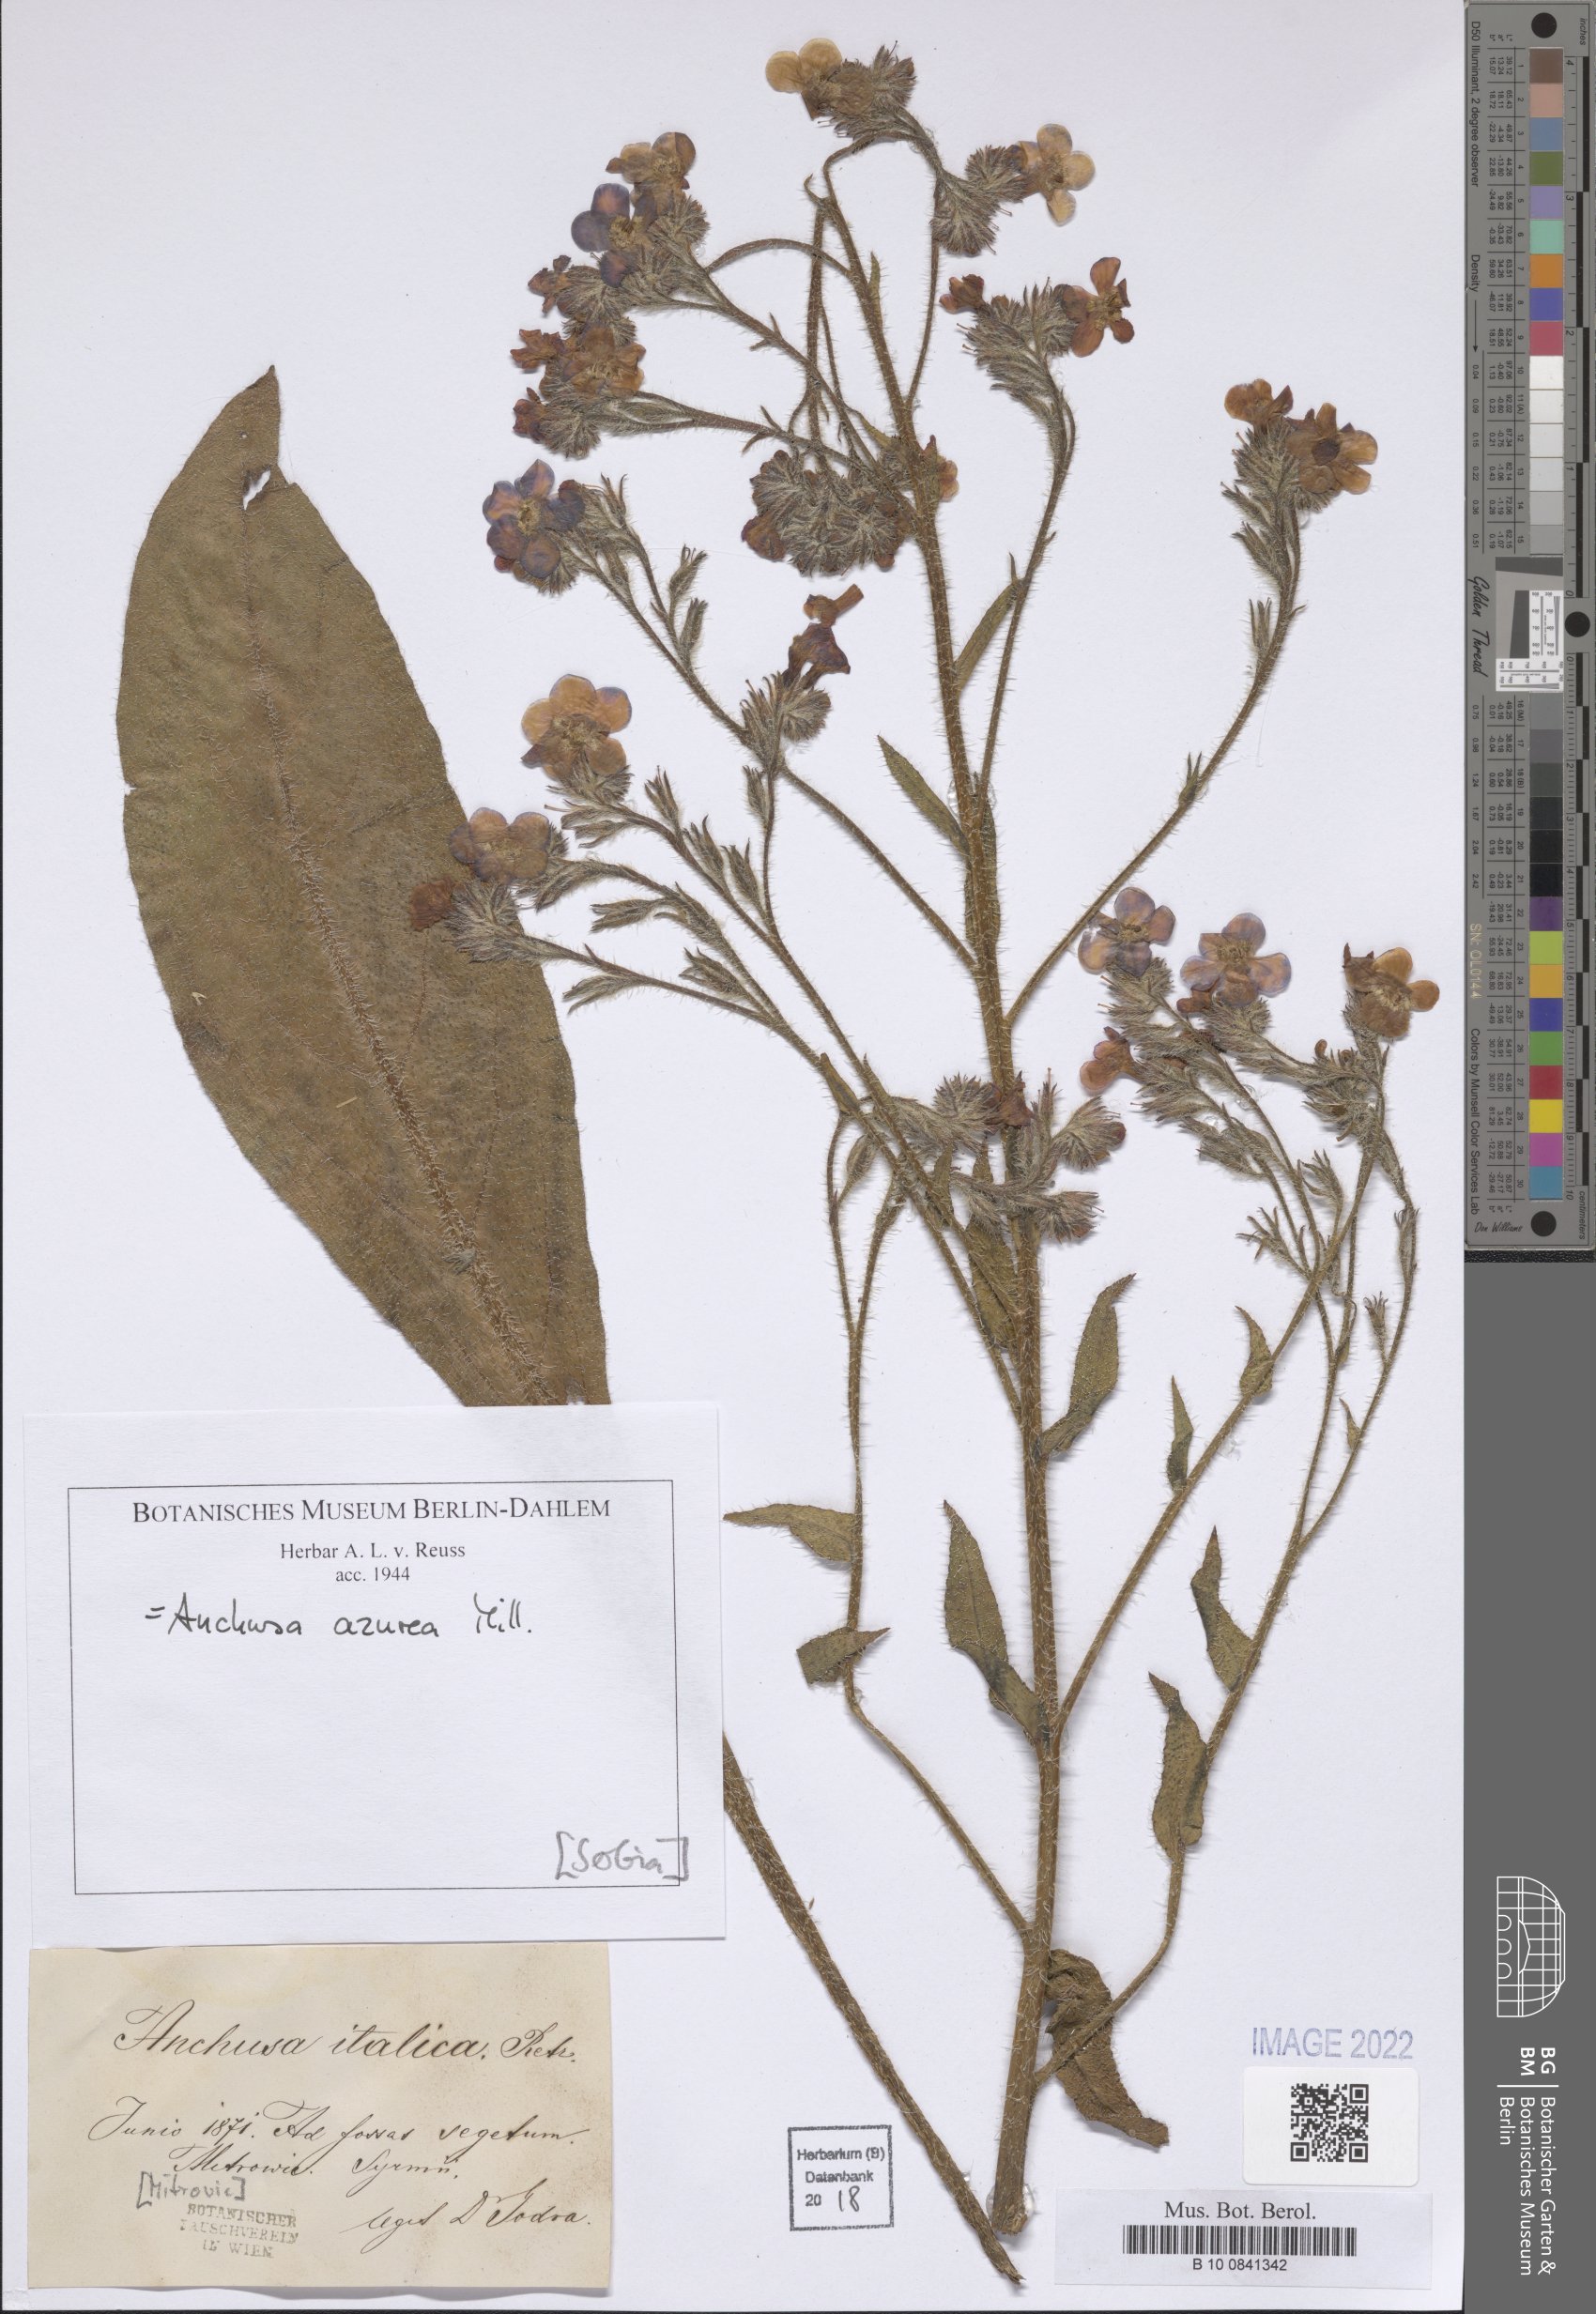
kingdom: Plantae
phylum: Tracheophyta
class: Magnoliopsida
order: Boraginales
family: Boraginaceae
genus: Anchusa
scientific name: Anchusa azurea
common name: Garden anchusa
